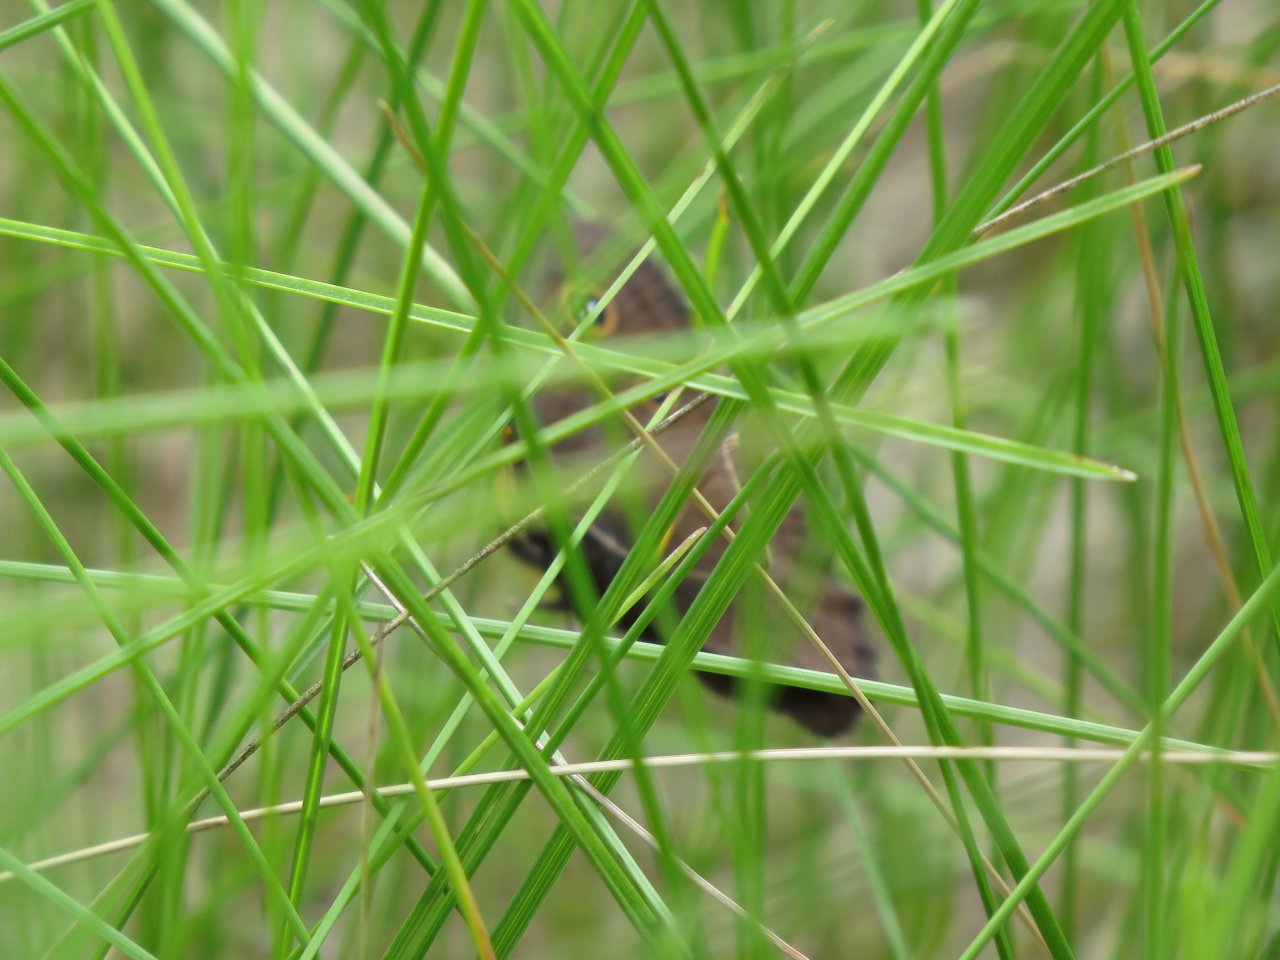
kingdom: Animalia
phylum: Arthropoda
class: Insecta
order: Lepidoptera
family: Nymphalidae
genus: Cercyonis
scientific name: Cercyonis pegala
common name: Common Wood-Nymph
